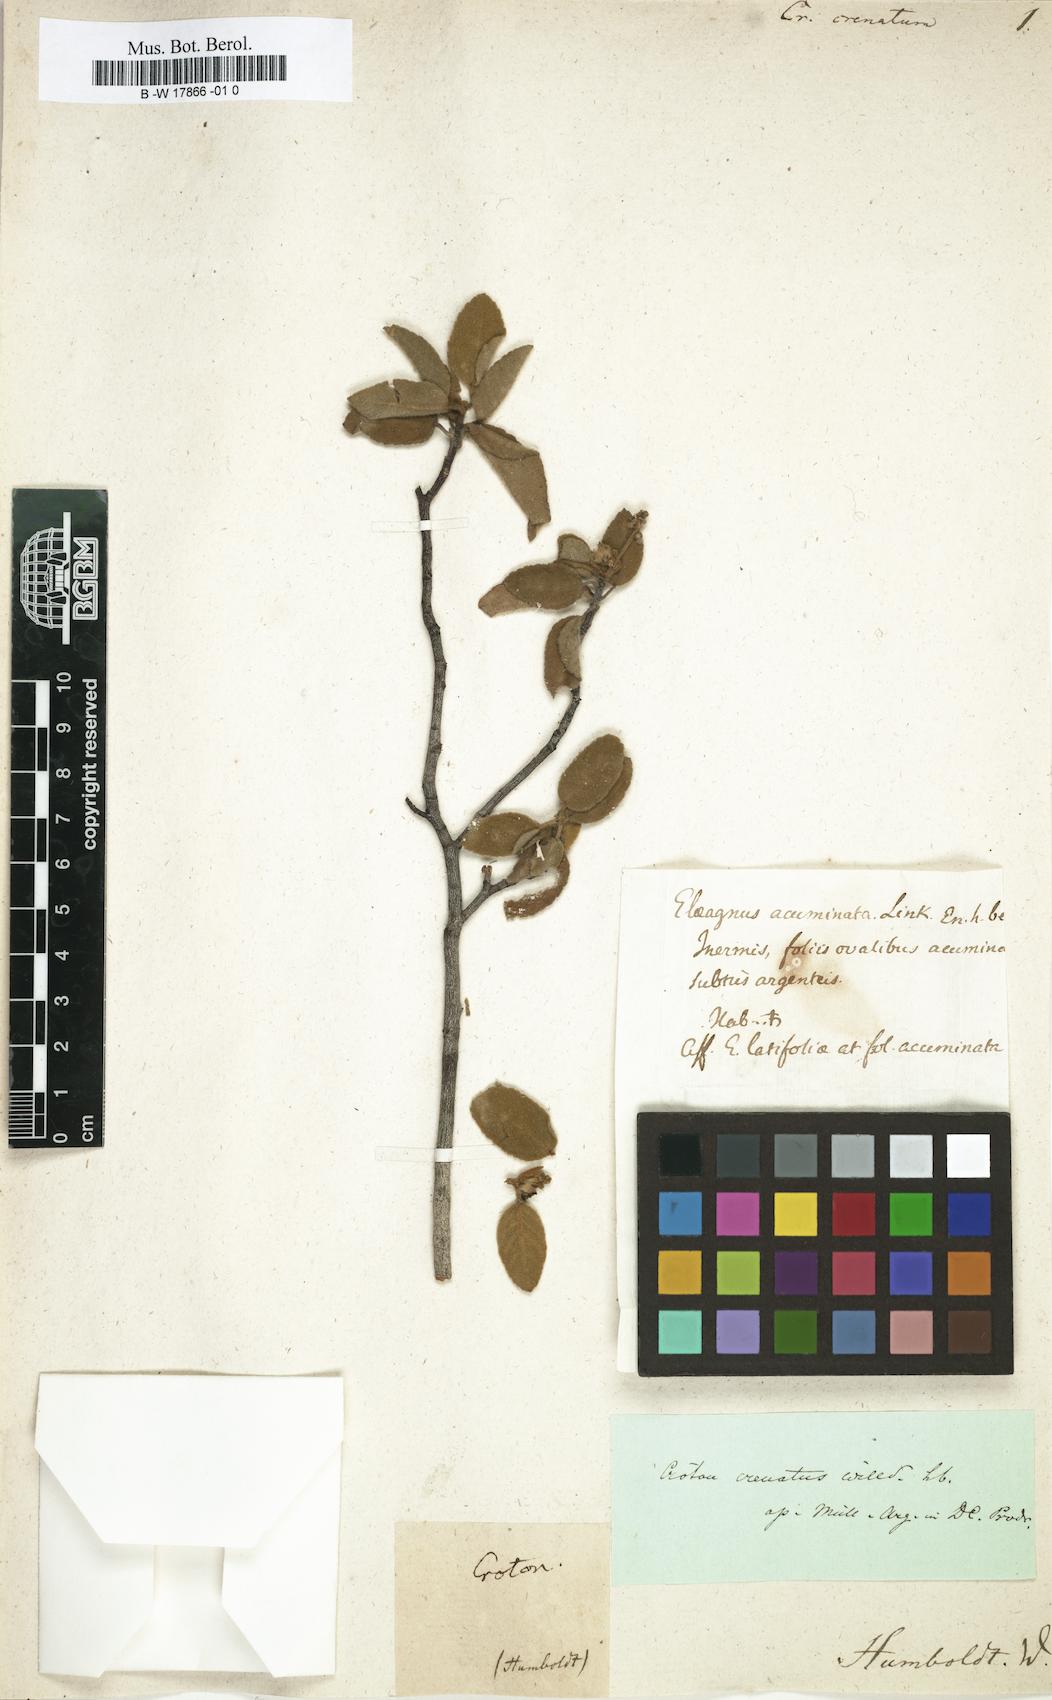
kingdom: Plantae
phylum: Tracheophyta
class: Magnoliopsida
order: Malpighiales
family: Euphorbiaceae
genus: Croton
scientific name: Croton mollis
